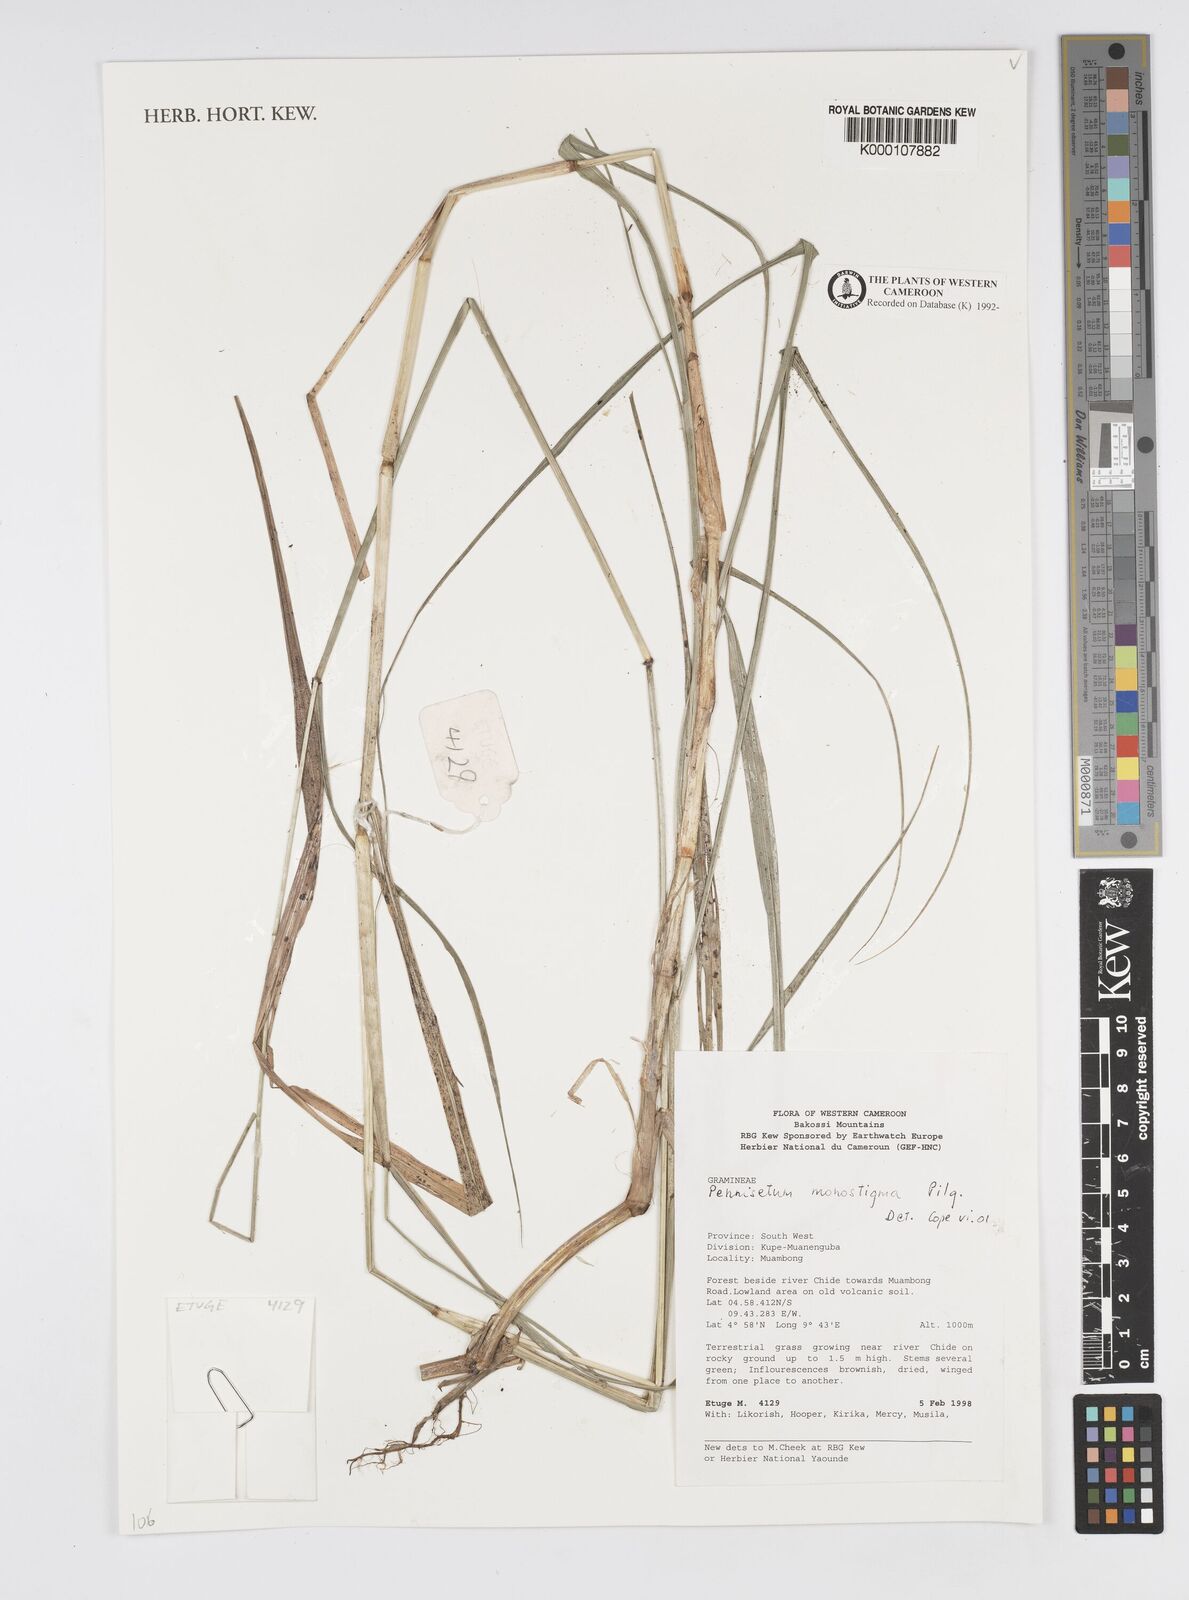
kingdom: Plantae
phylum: Tracheophyta
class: Liliopsida
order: Poales
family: Poaceae
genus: Cenchrus
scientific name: Cenchrus monostigma
